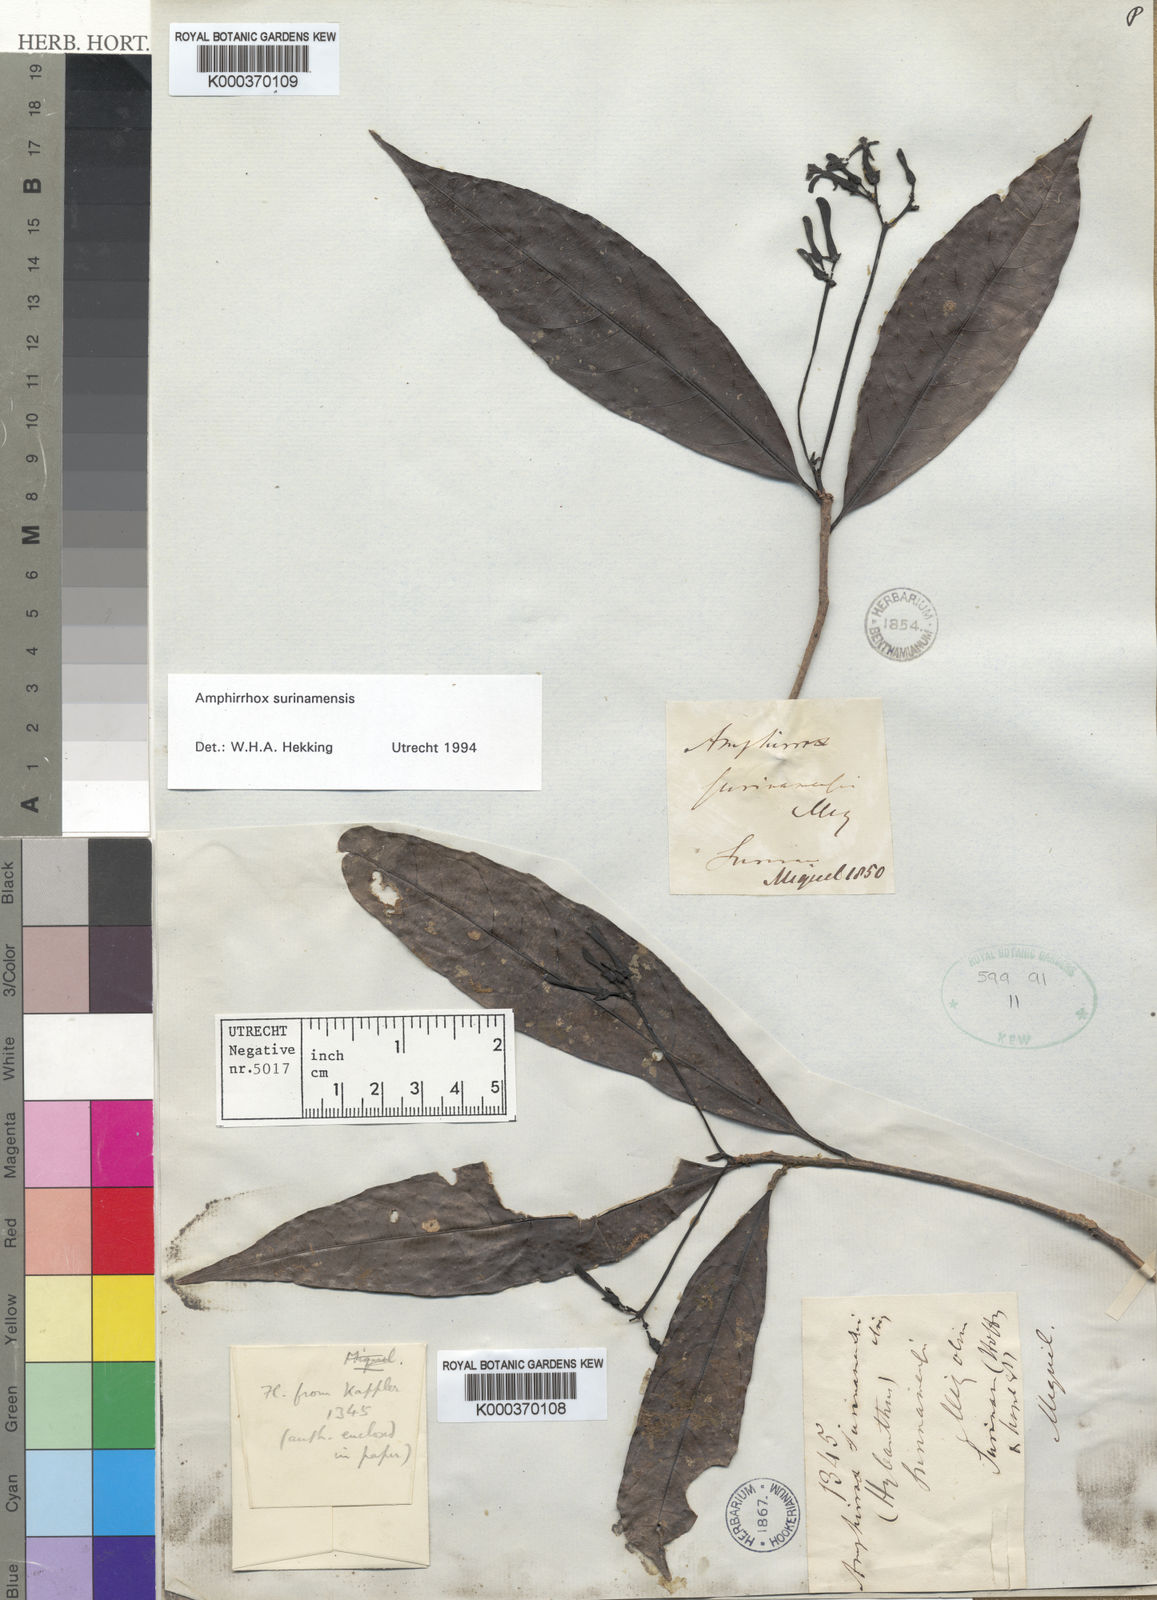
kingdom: Plantae
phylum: Tracheophyta
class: Magnoliopsida
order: Malpighiales
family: Violaceae
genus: Amphirrhox
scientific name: Amphirrhox longifolia
